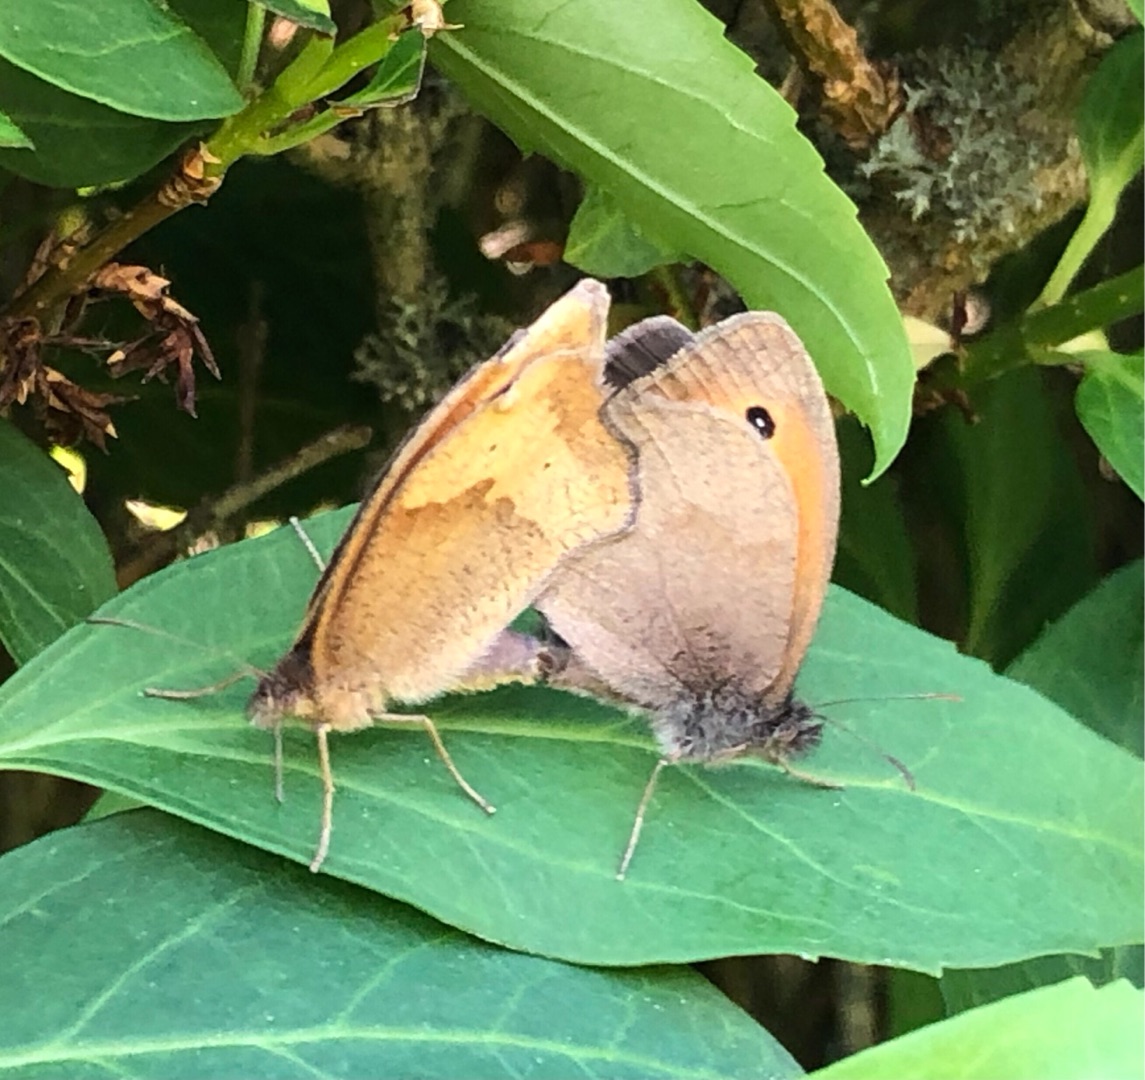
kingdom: Animalia
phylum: Arthropoda
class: Insecta
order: Lepidoptera
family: Nymphalidae
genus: Maniola
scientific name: Maniola jurtina
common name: Græsrandøje
